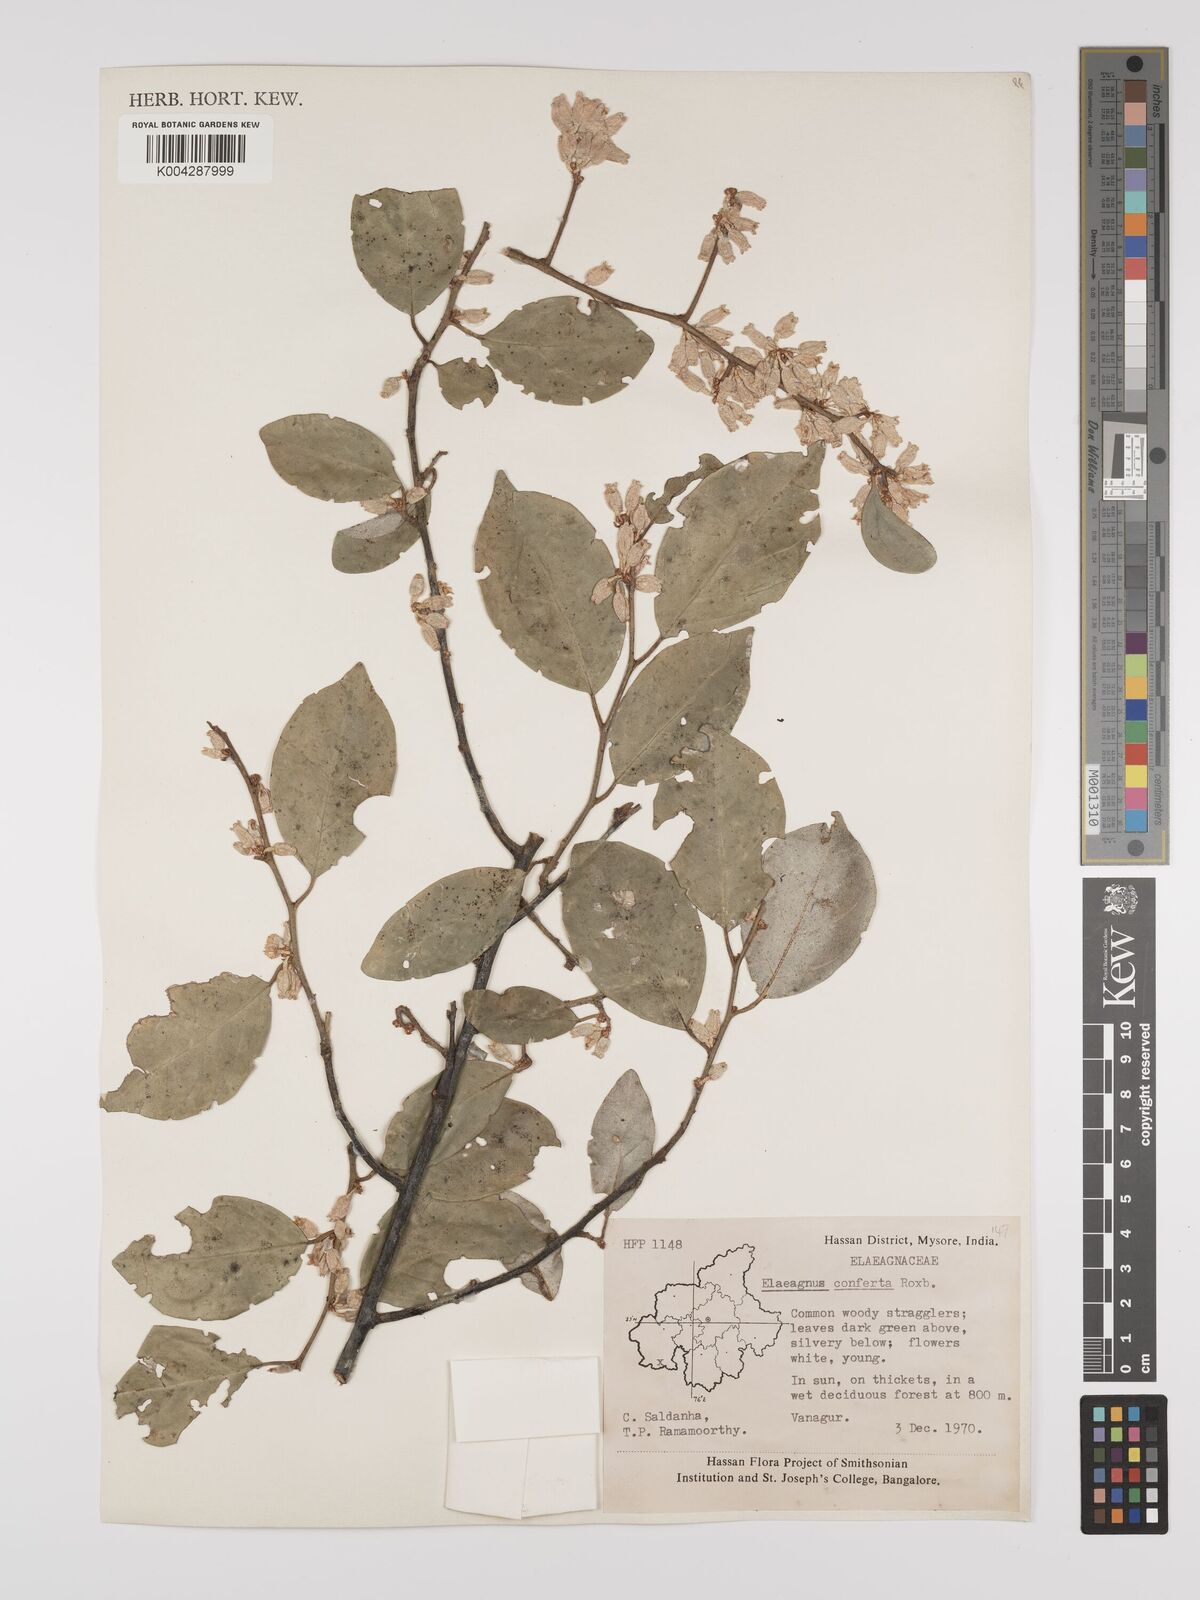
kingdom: Plantae
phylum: Tracheophyta
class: Magnoliopsida
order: Rosales
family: Elaeagnaceae
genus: Elaeagnus
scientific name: Elaeagnus latifolia
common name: Oleaster
